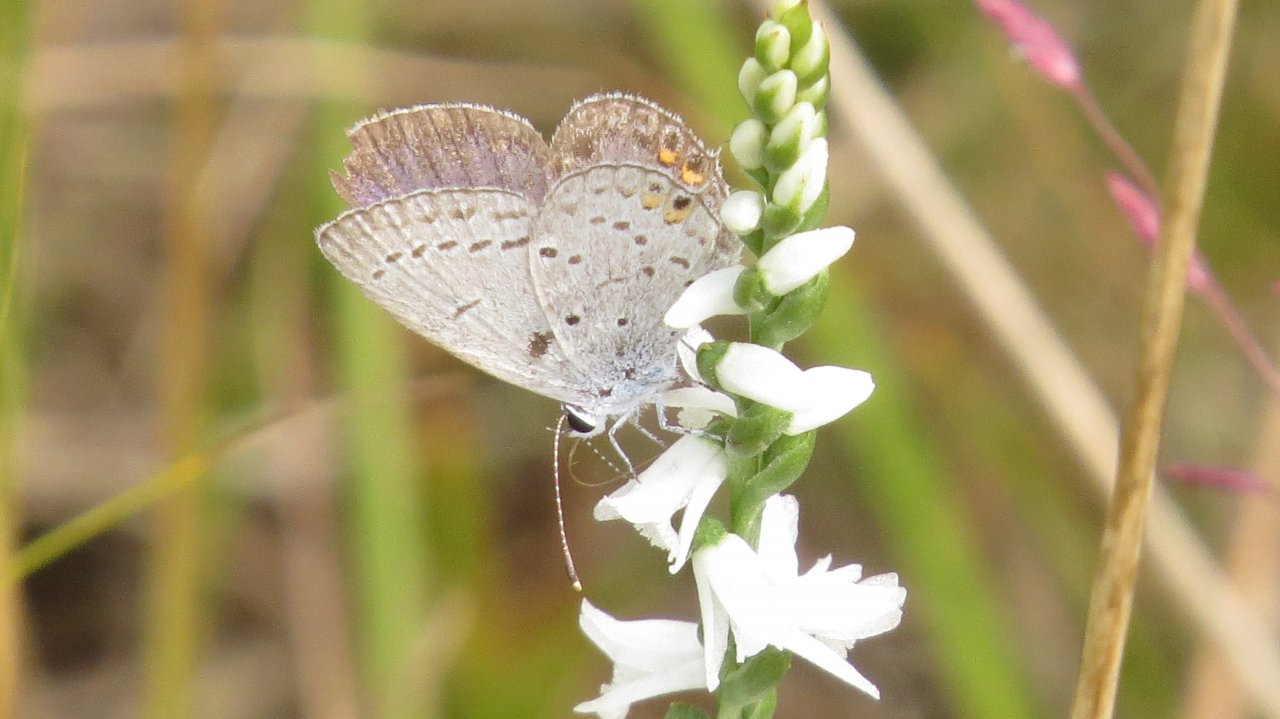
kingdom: Animalia
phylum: Arthropoda
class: Insecta
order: Lepidoptera
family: Lycaenidae
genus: Elkalyce
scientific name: Elkalyce comyntas
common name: Eastern Tailed-Blue
